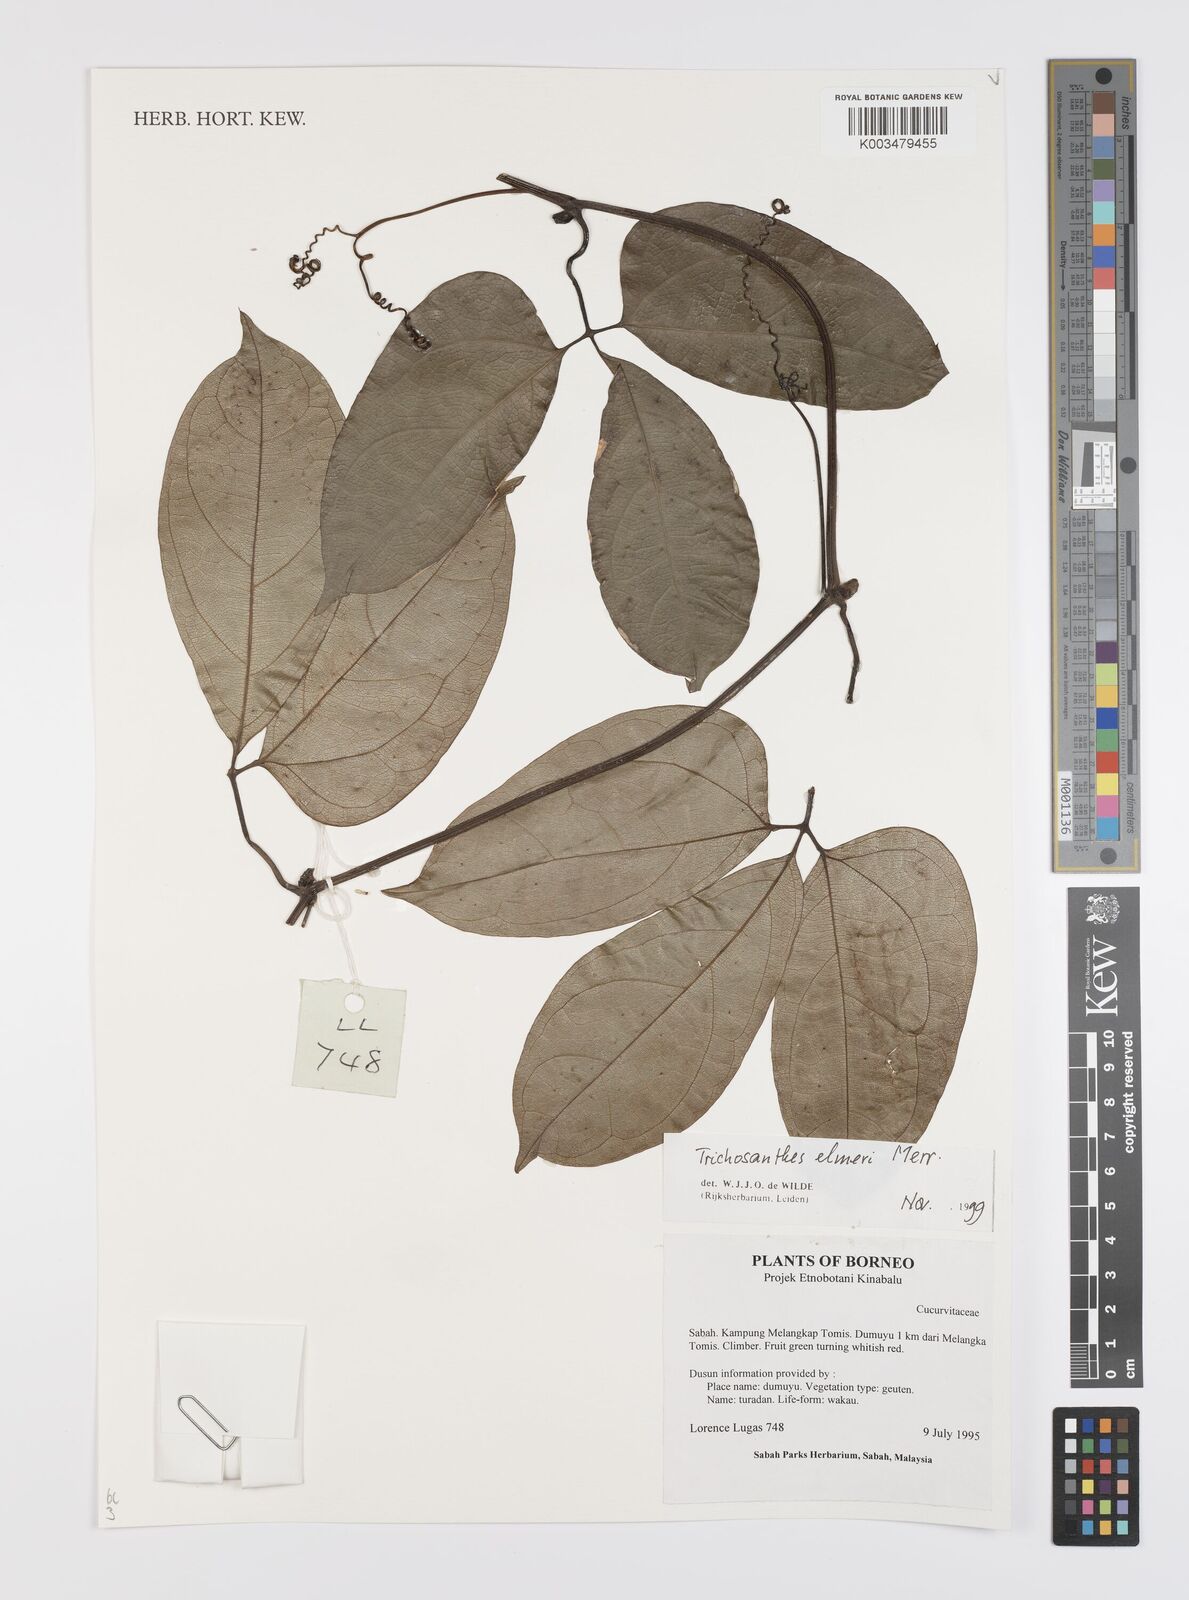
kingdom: Plantae
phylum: Tracheophyta
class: Magnoliopsida
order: Cucurbitales
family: Cucurbitaceae
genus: Trichosanthes
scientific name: Trichosanthes elmeri
